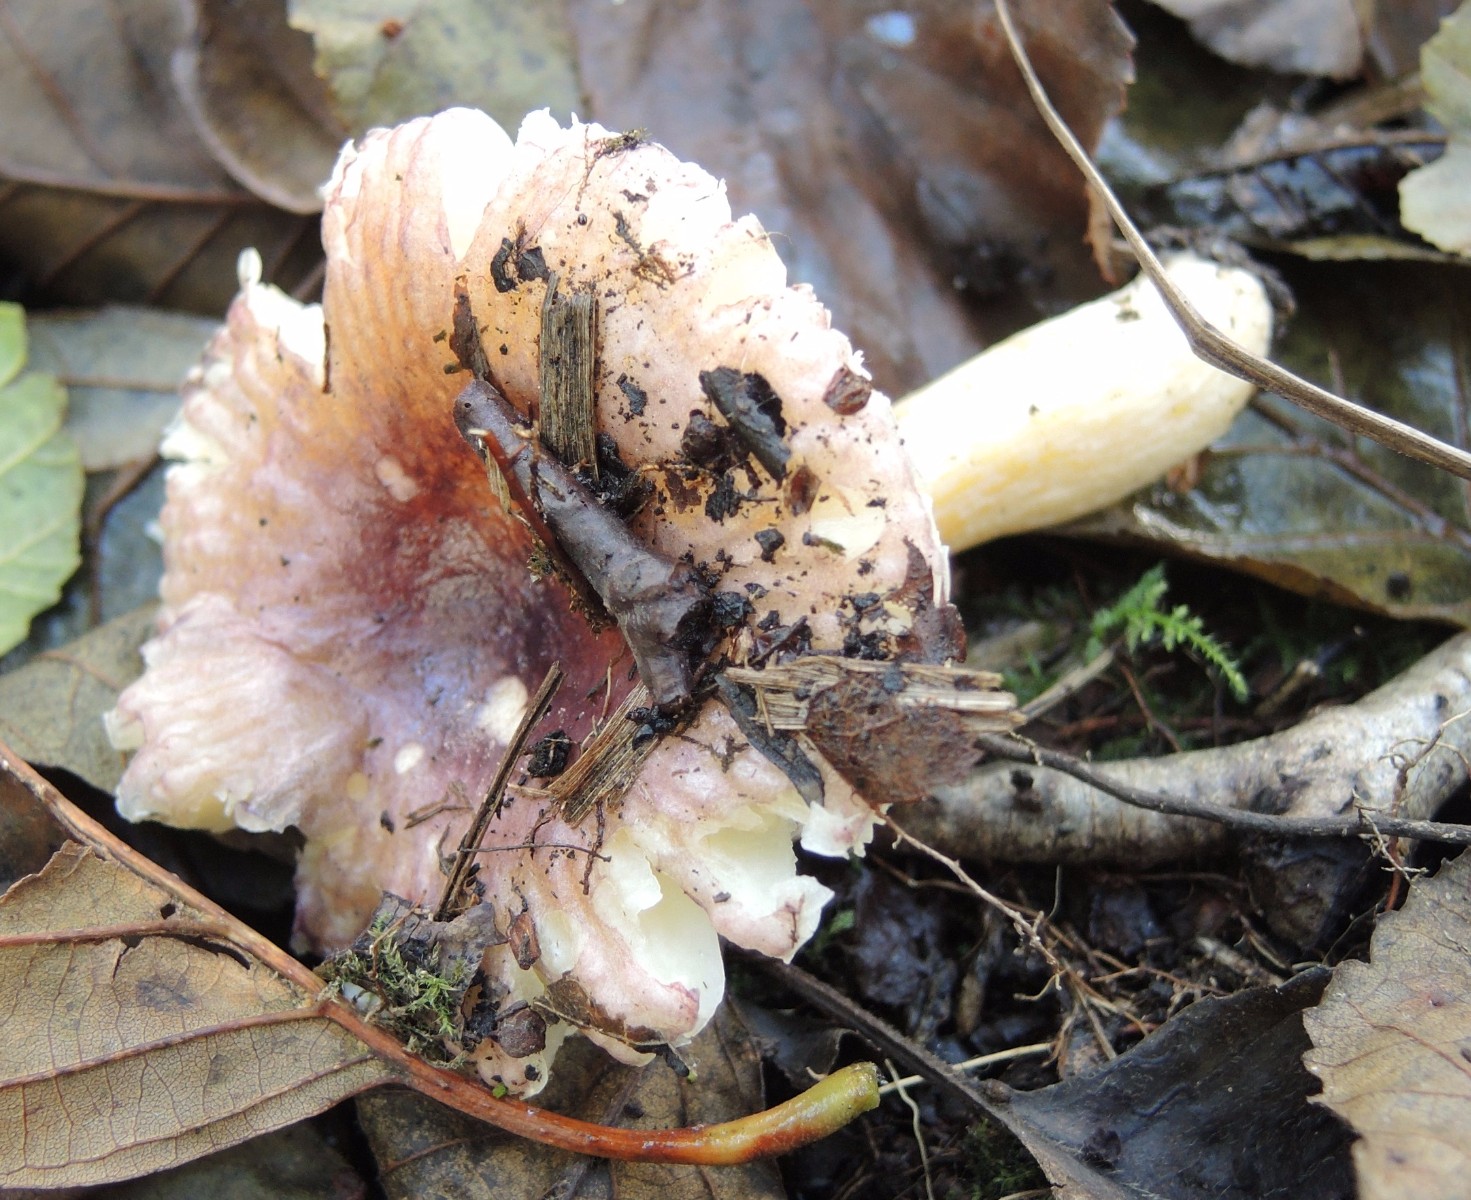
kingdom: Fungi
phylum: Basidiomycota
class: Agaricomycetes
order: Russulales
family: Russulaceae
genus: Russula
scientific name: Russula alnetorum
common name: elle-skørhat
